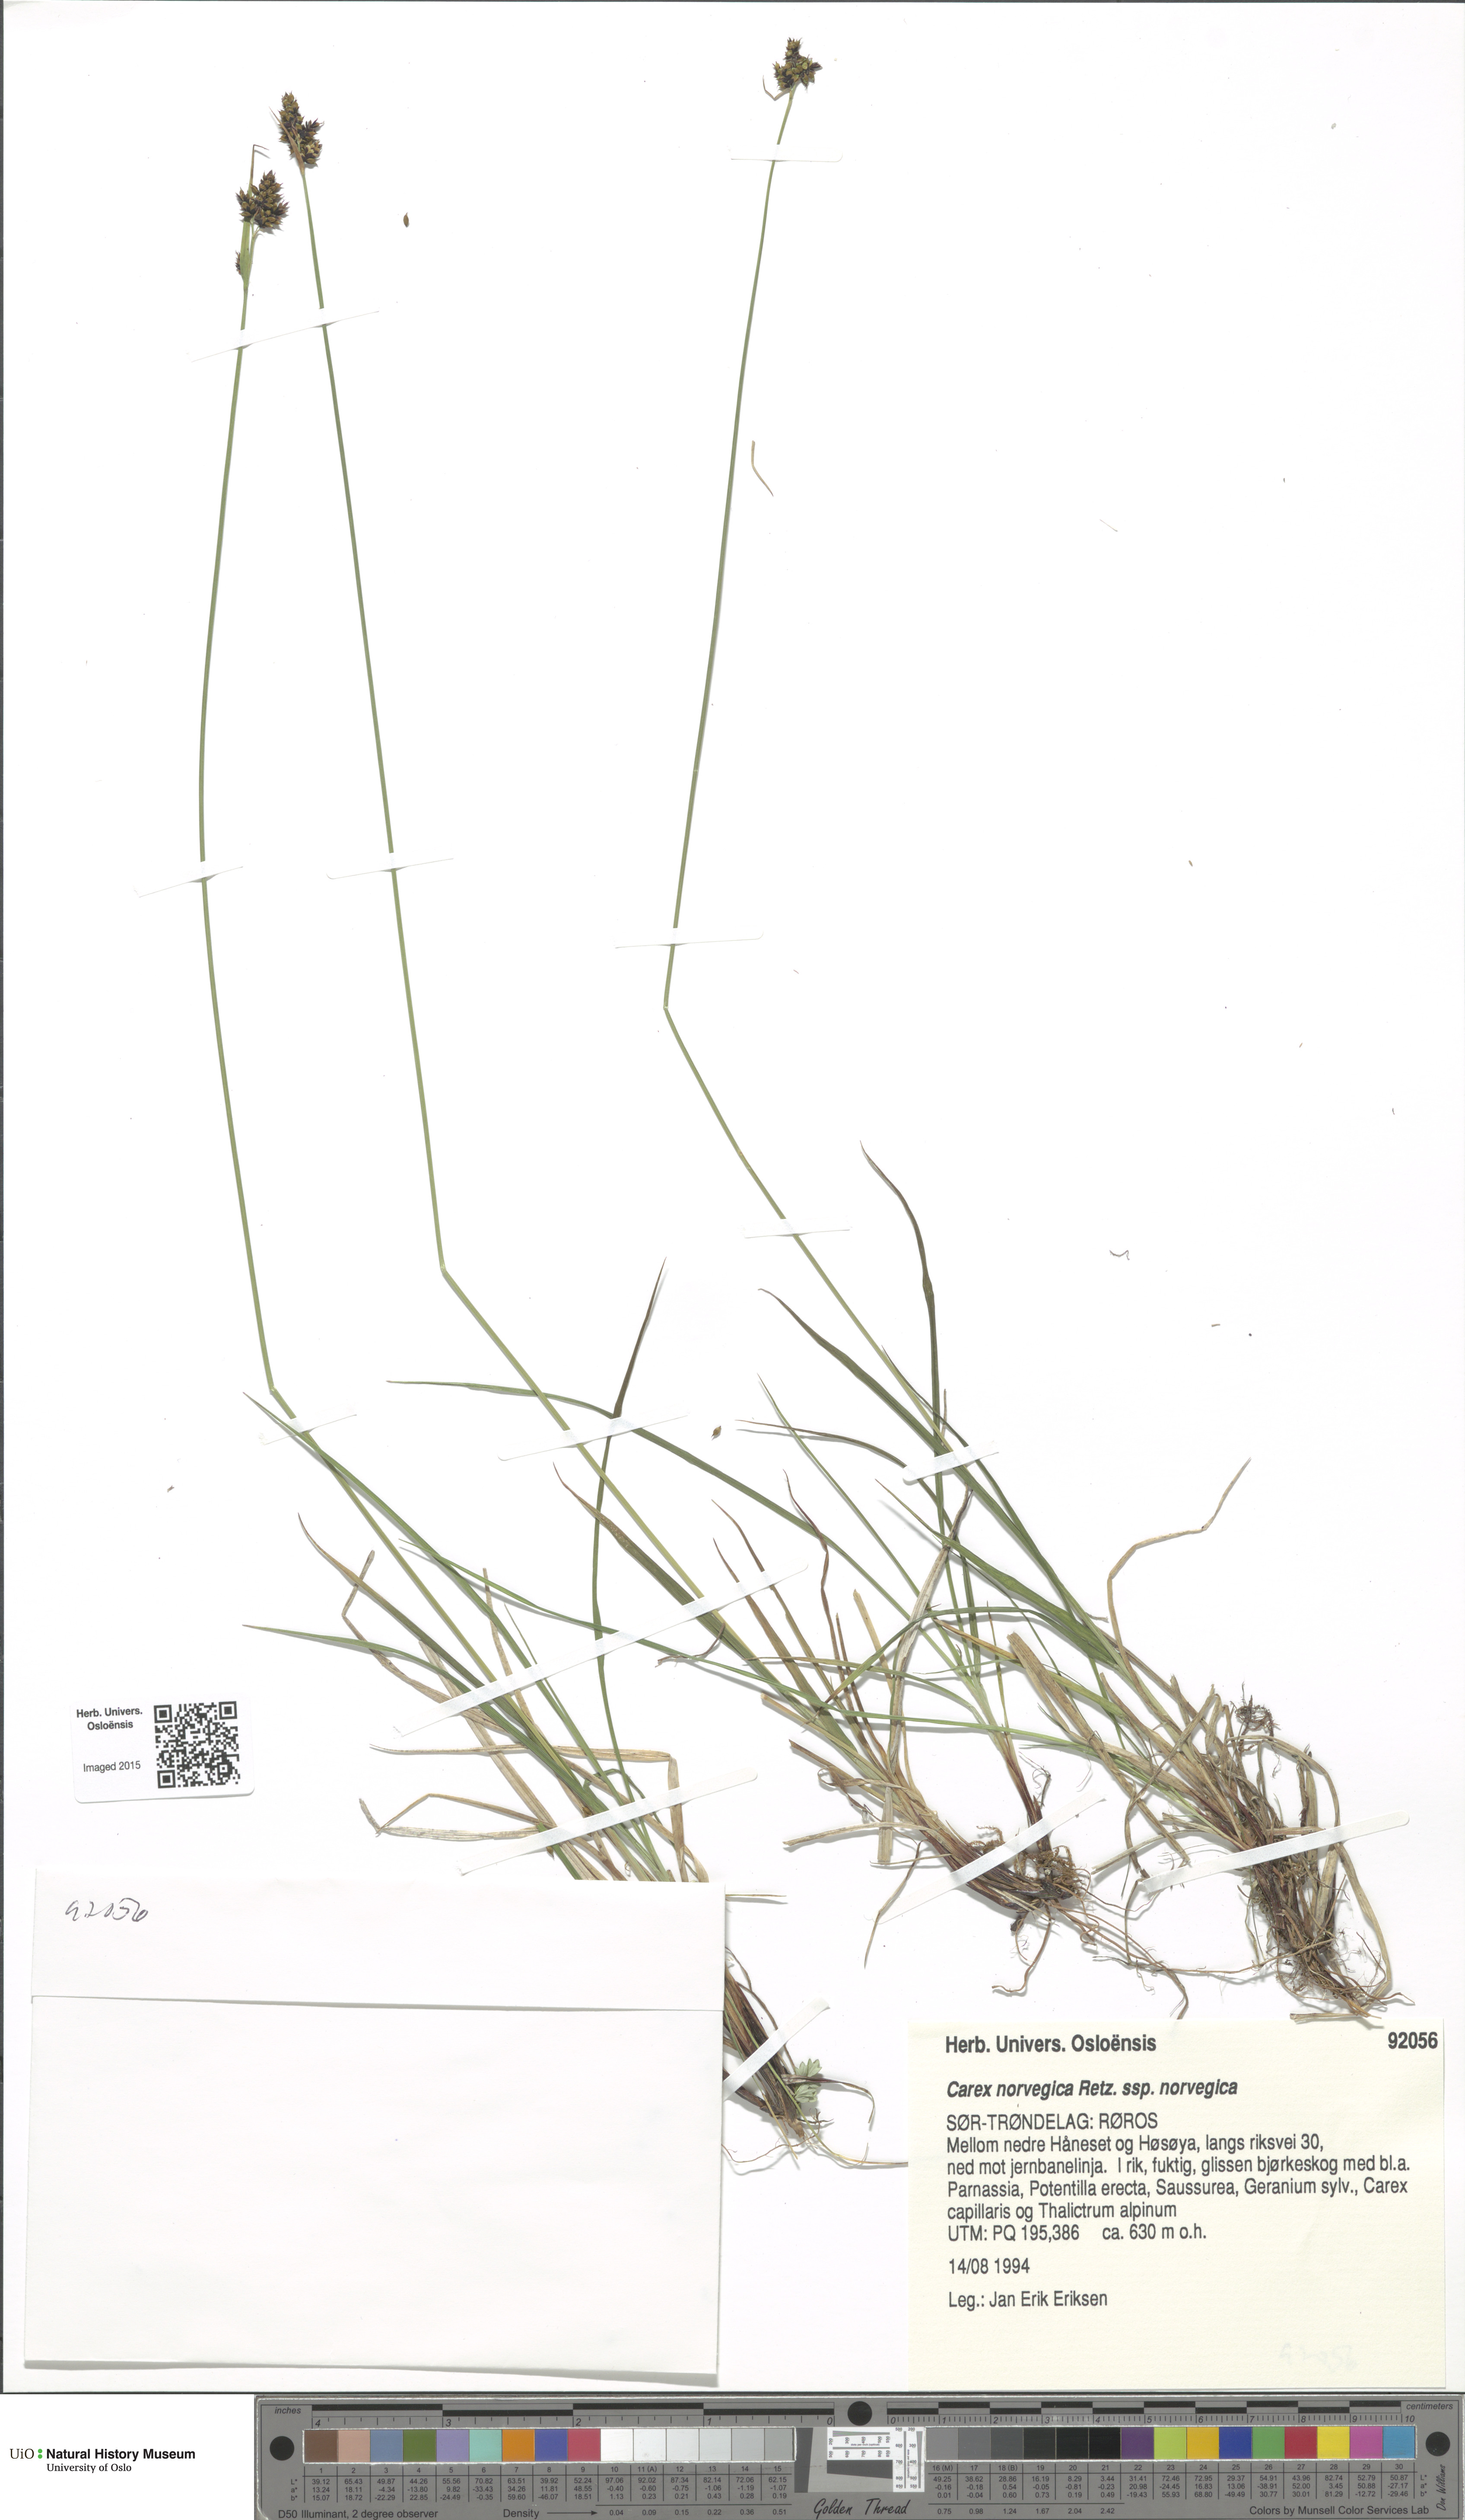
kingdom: Plantae
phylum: Tracheophyta
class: Liliopsida
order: Poales
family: Cyperaceae
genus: Carex
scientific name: Carex norvegica
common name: Close-headed alpine-sedge
